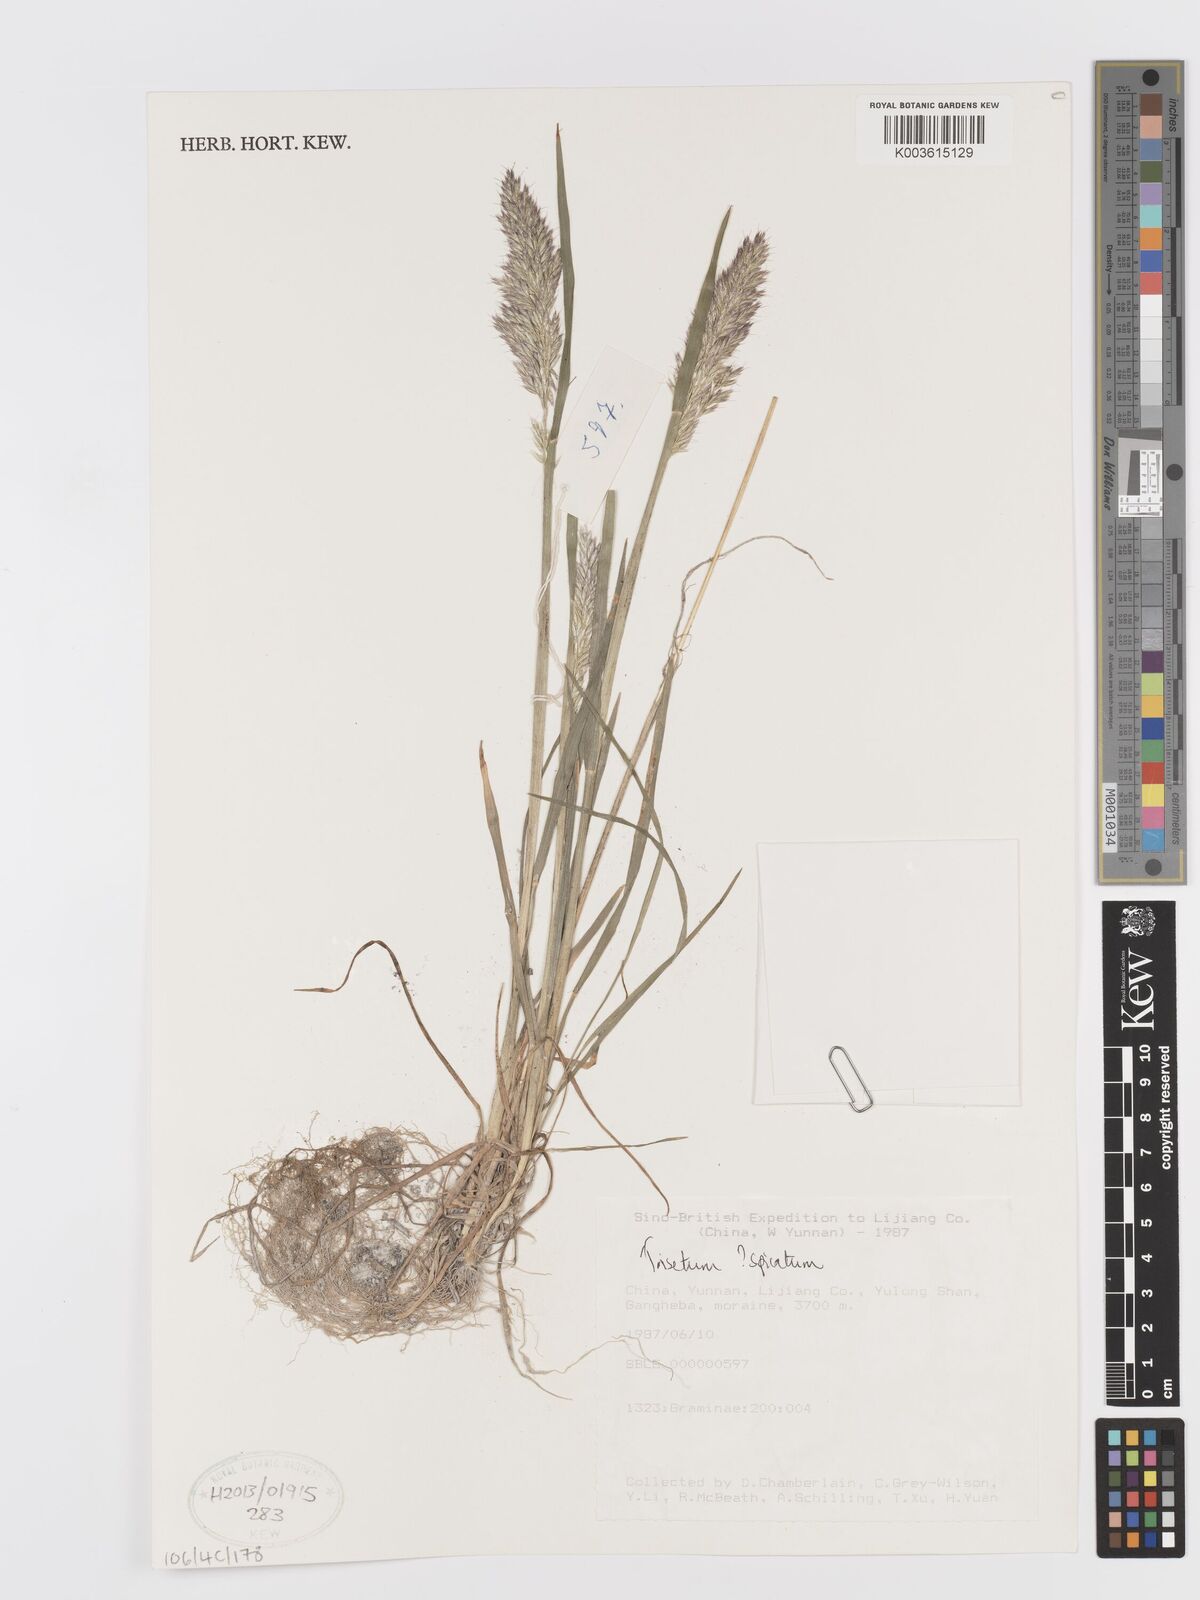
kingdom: Plantae
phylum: Tracheophyta
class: Liliopsida
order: Poales
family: Poaceae
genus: Koeleria
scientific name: Koeleria spicata
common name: Mountain trisetum
